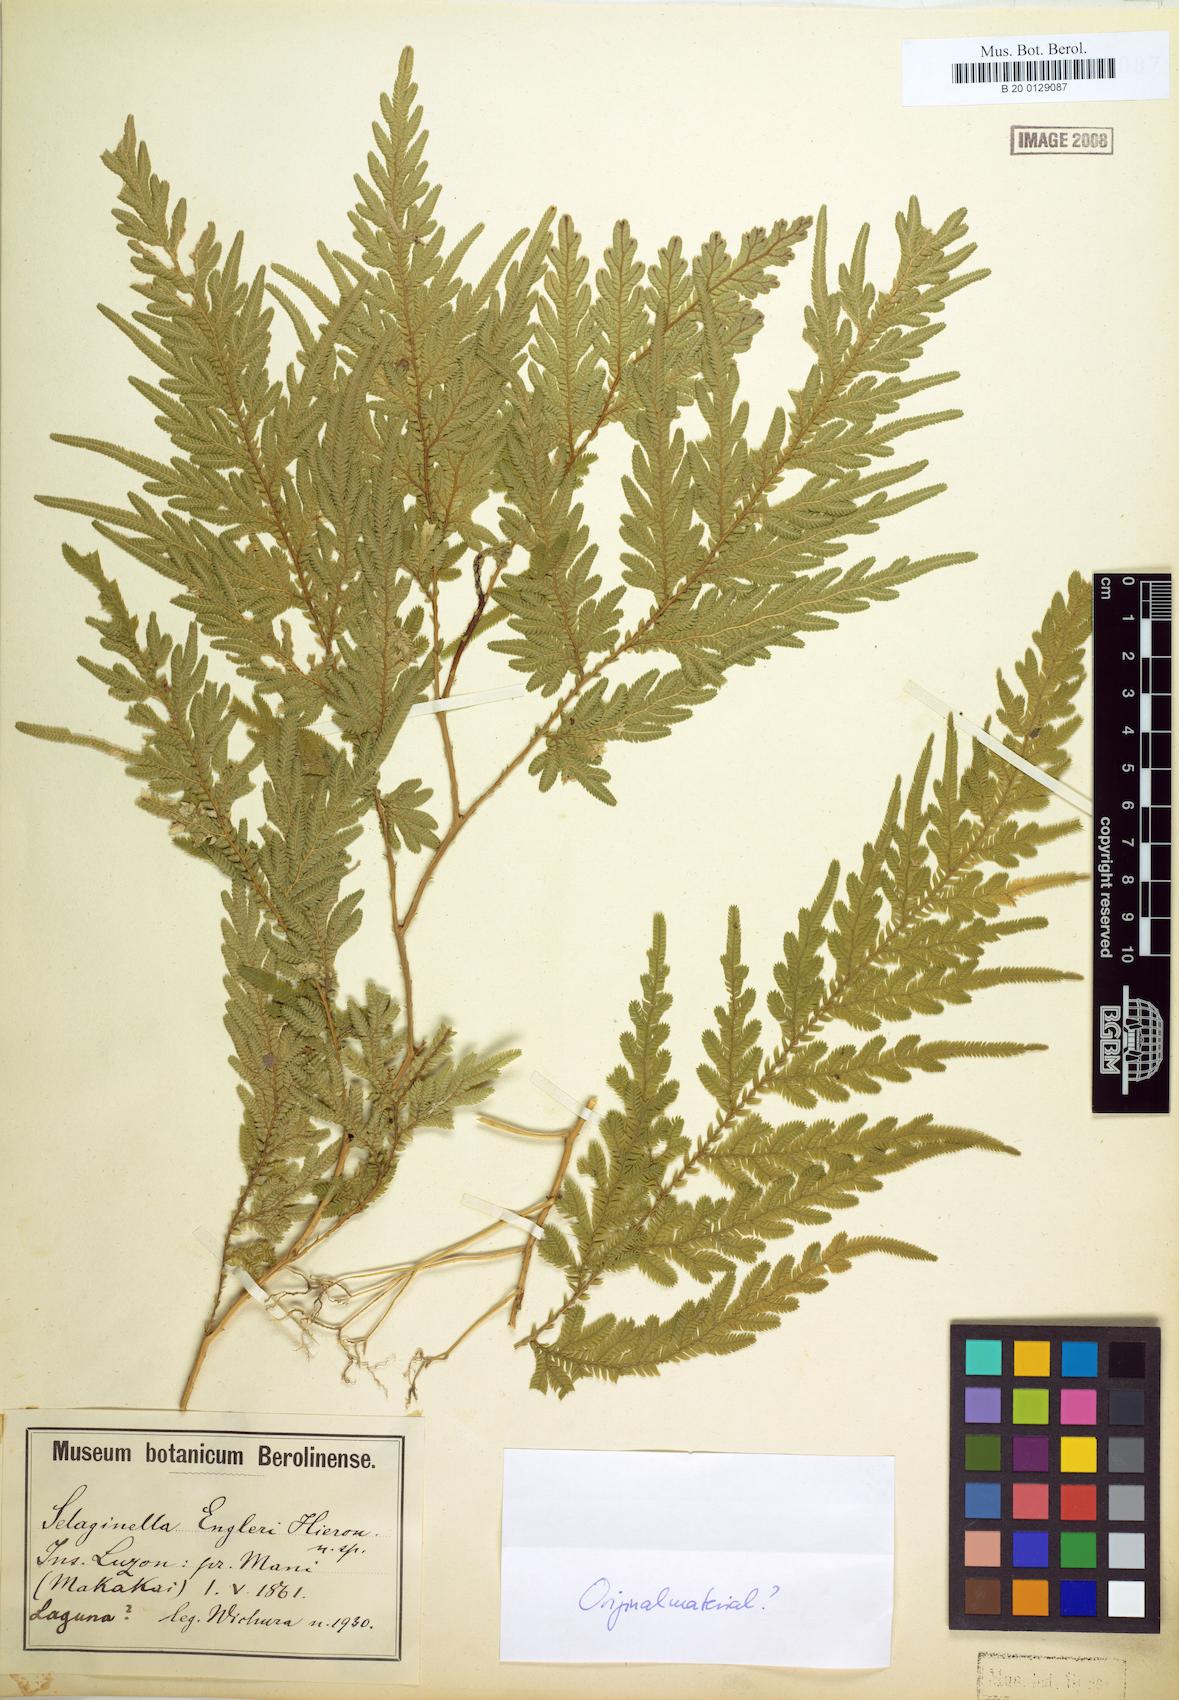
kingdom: Plantae
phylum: Tracheophyta
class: Lycopodiopsida
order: Selaginellales
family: Selaginellaceae
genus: Selaginella
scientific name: Selaginella engleri
